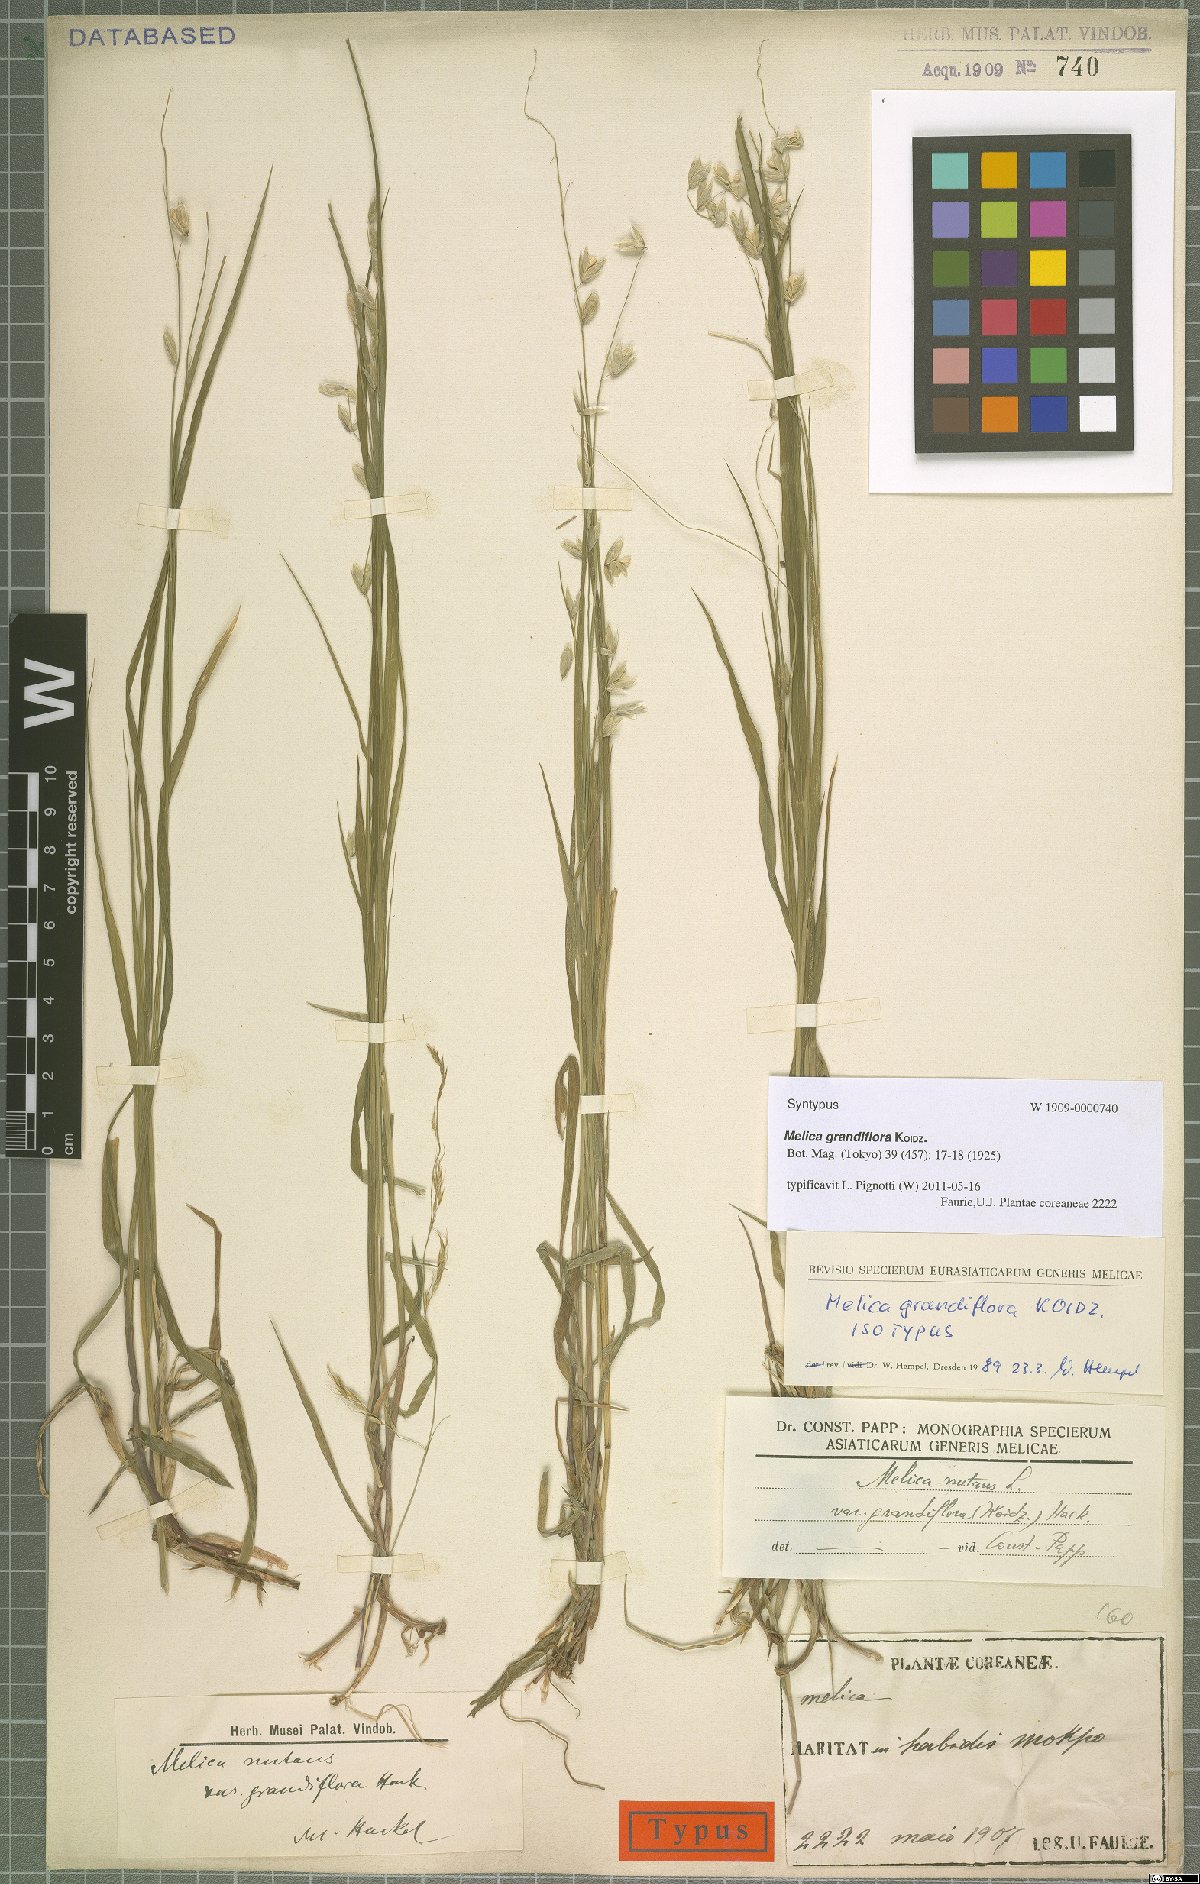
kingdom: Plantae
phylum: Tracheophyta
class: Liliopsida
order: Poales
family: Poaceae
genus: Melica
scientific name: Melica nutans
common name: Mountain melick
